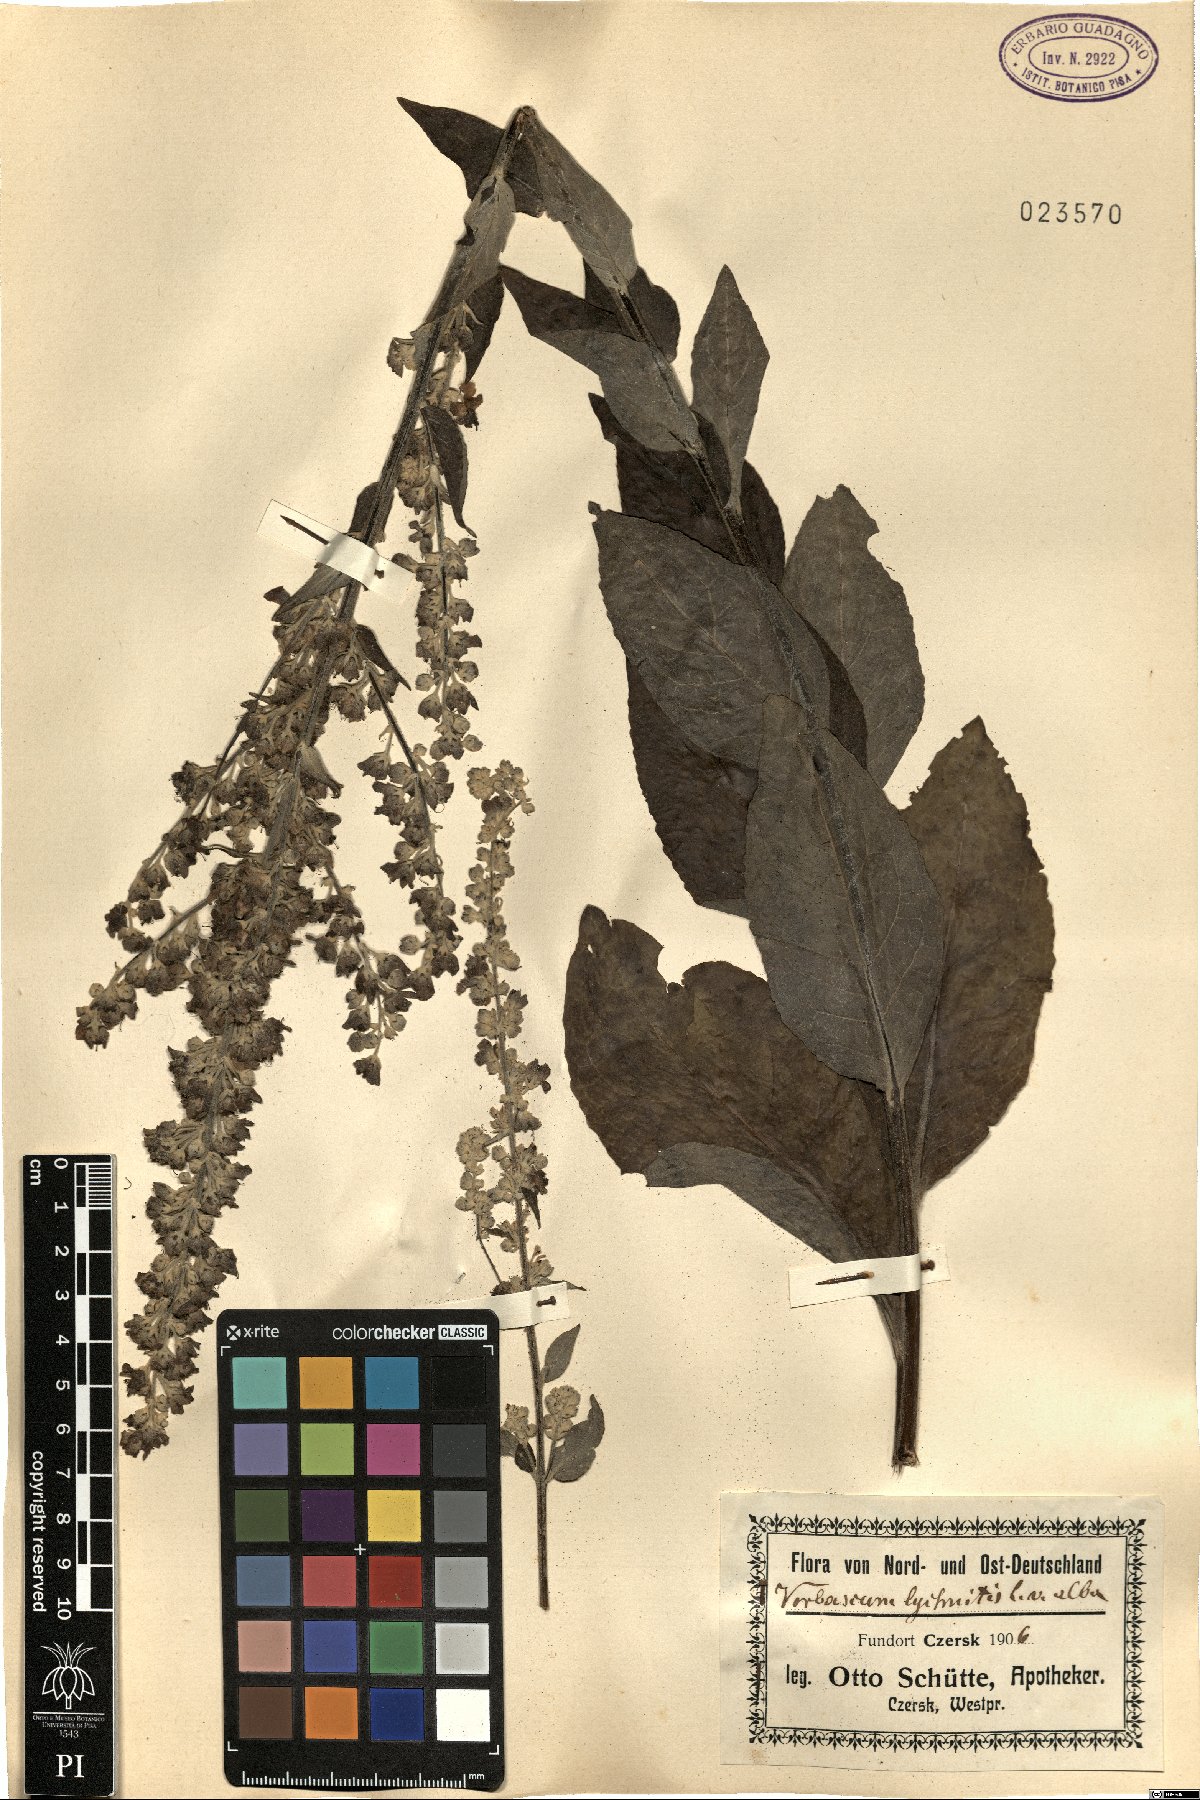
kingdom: Plantae
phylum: Tracheophyta
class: Magnoliopsida
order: Lamiales
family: Scrophulariaceae
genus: Verbascum
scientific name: Verbascum lychnitis
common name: White mullein
